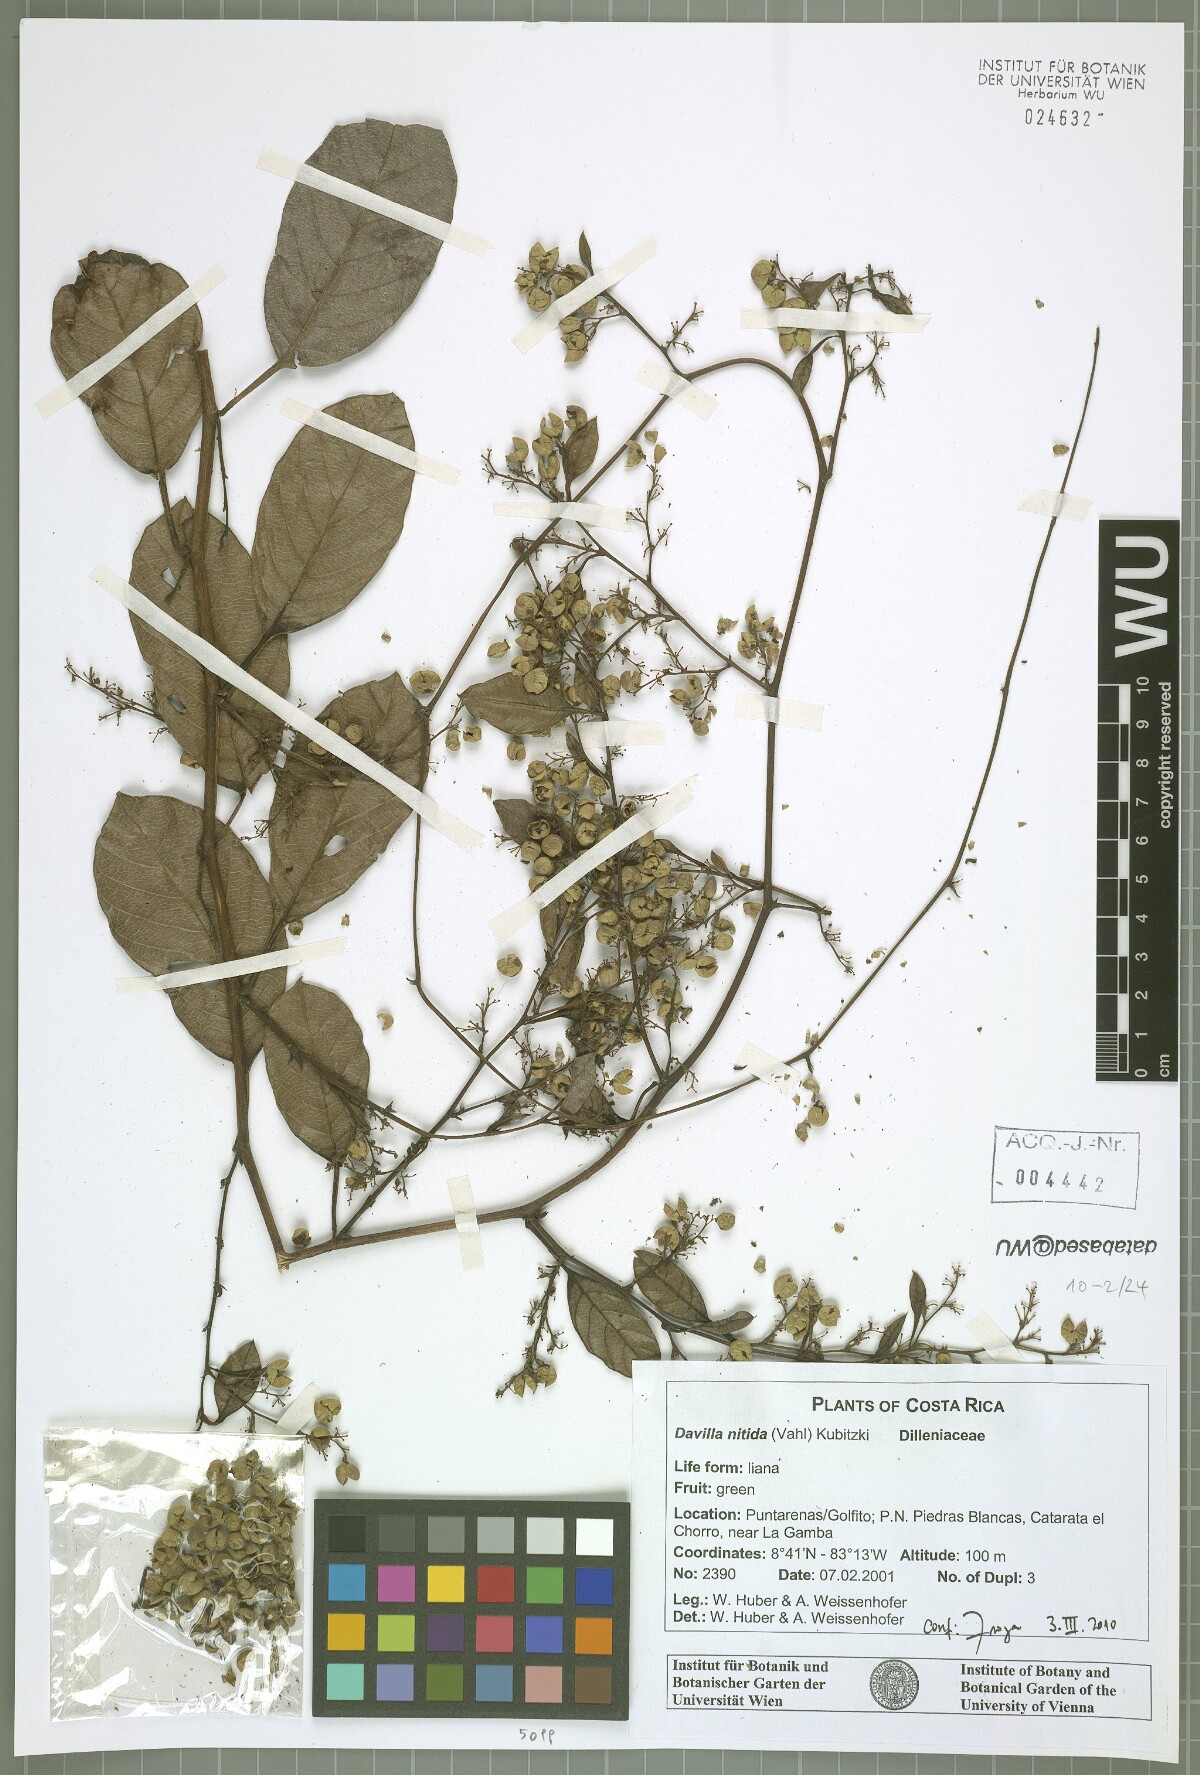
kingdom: Plantae
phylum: Tracheophyta
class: Magnoliopsida
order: Dilleniales
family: Dilleniaceae
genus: Davilla
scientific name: Davilla nitida
